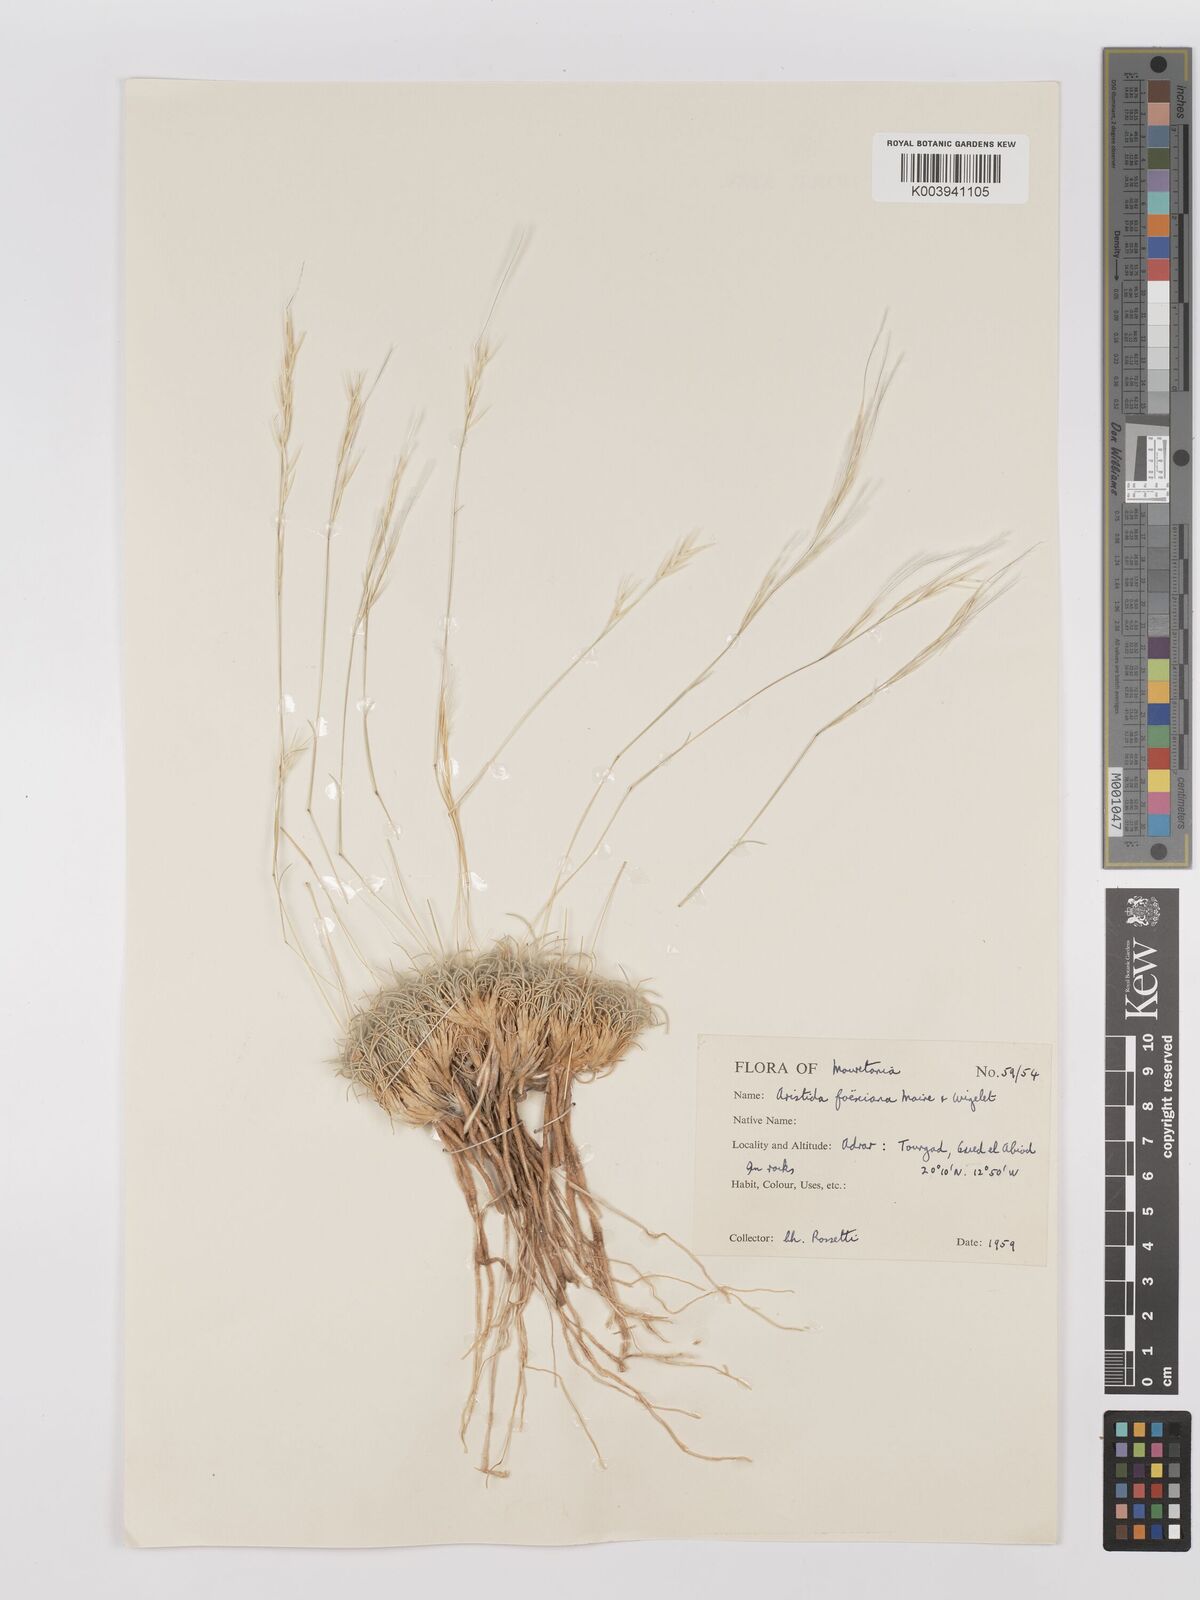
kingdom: Plantae
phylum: Tracheophyta
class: Liliopsida
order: Poales
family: Poaceae
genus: Stipagrostis
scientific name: Stipagrostis foexiana
